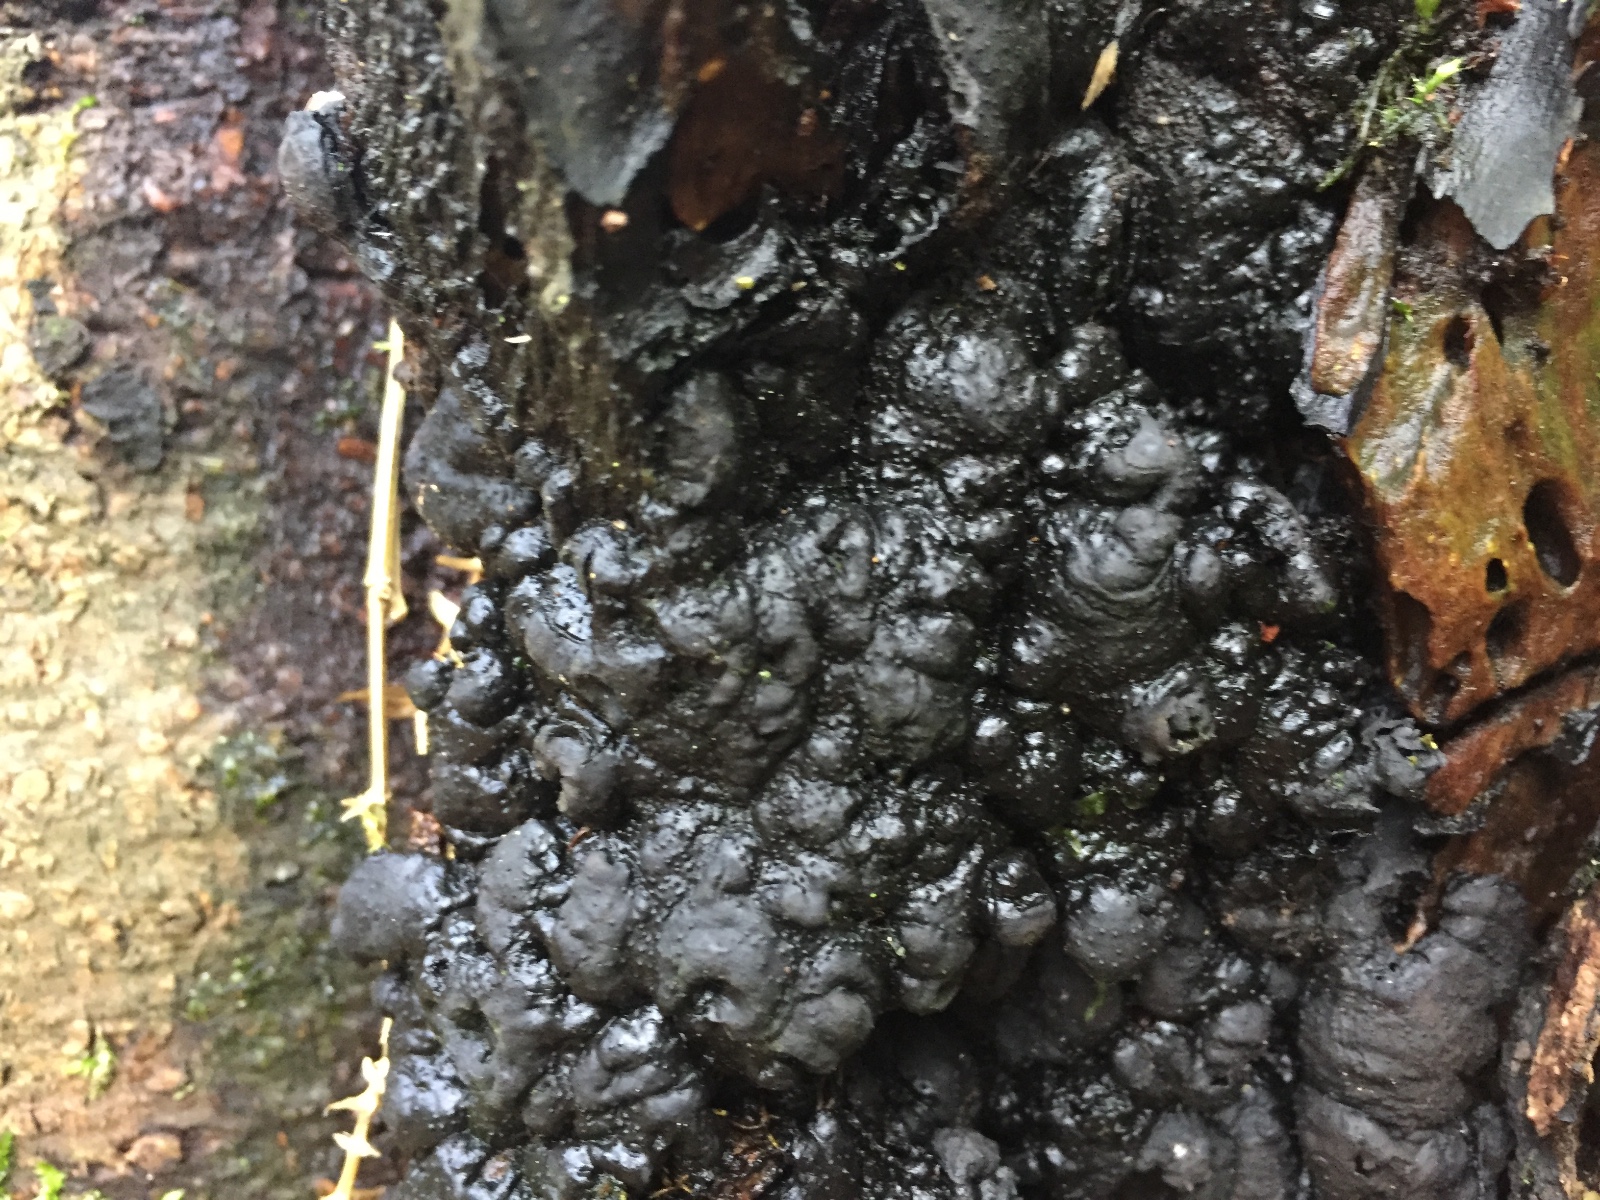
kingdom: Fungi
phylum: Ascomycota
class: Sordariomycetes
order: Xylariales
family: Xylariaceae
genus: Kretzschmaria
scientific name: Kretzschmaria deusta
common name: stor kulsvamp
